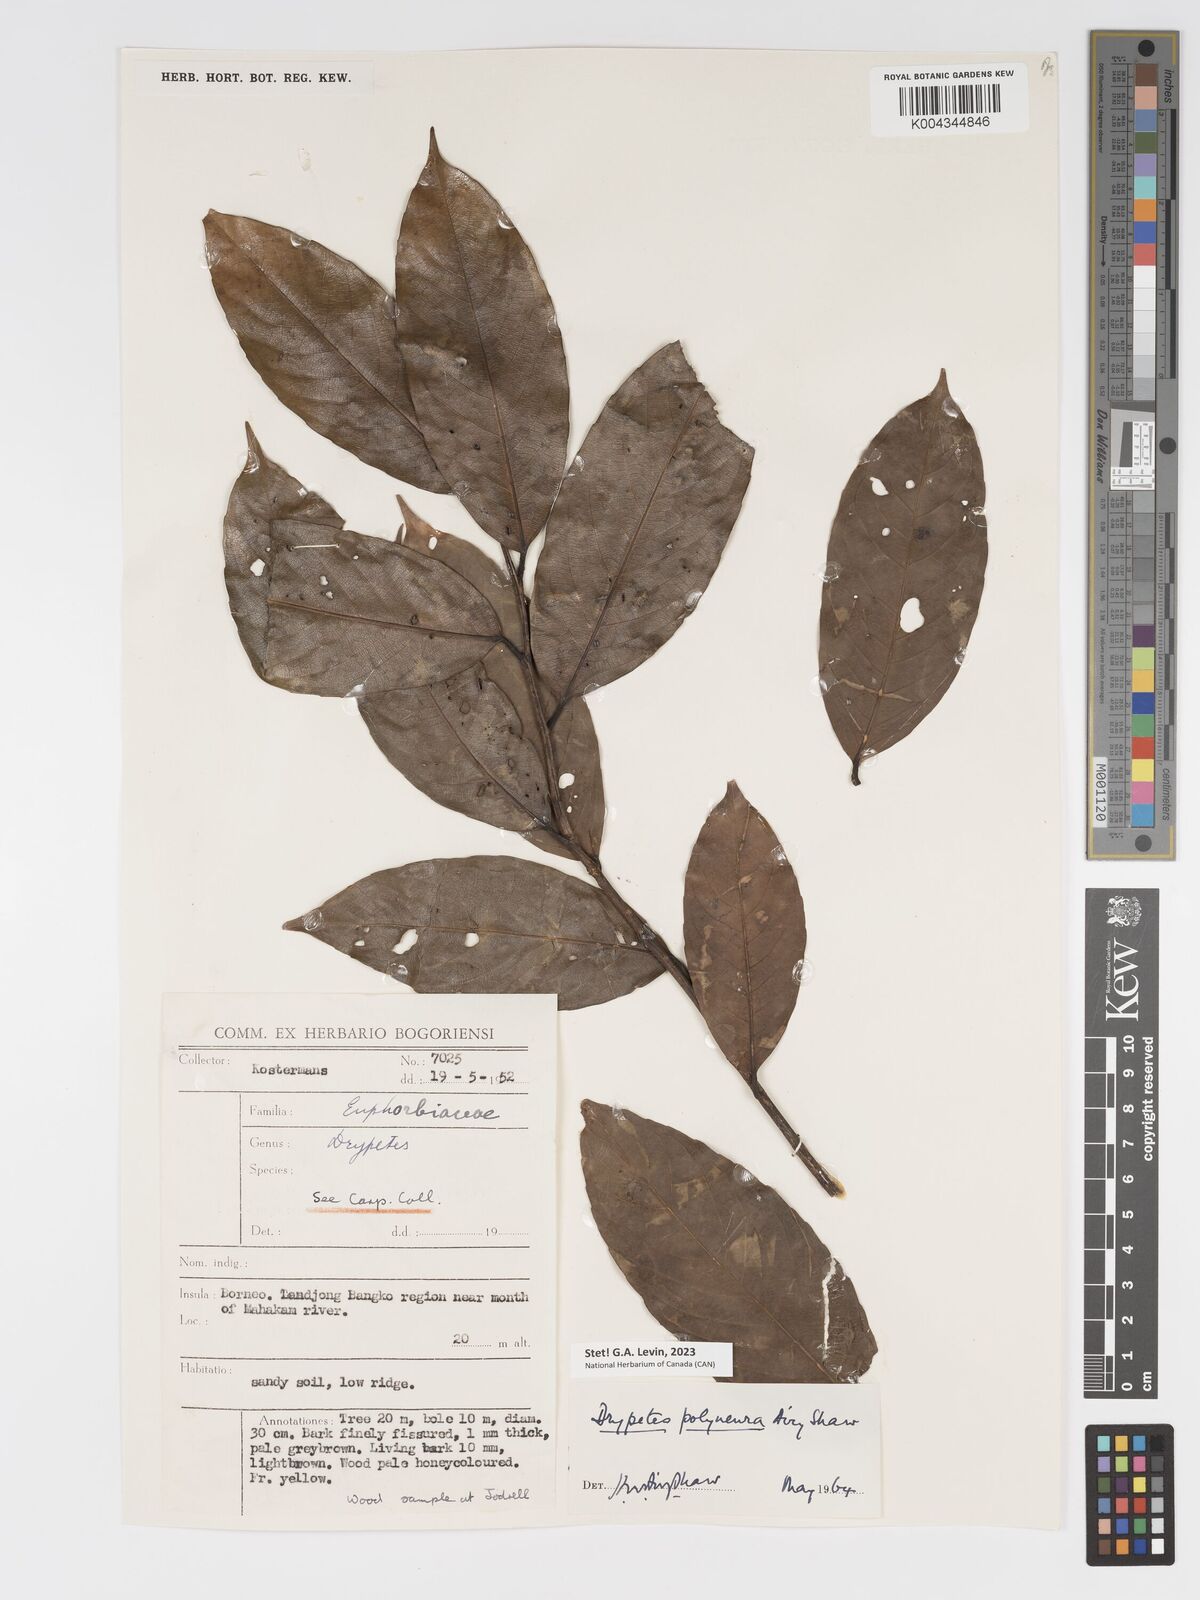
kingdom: Plantae
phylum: Tracheophyta
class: Magnoliopsida
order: Malpighiales
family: Putranjivaceae
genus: Drypetes
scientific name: Drypetes polyneura
